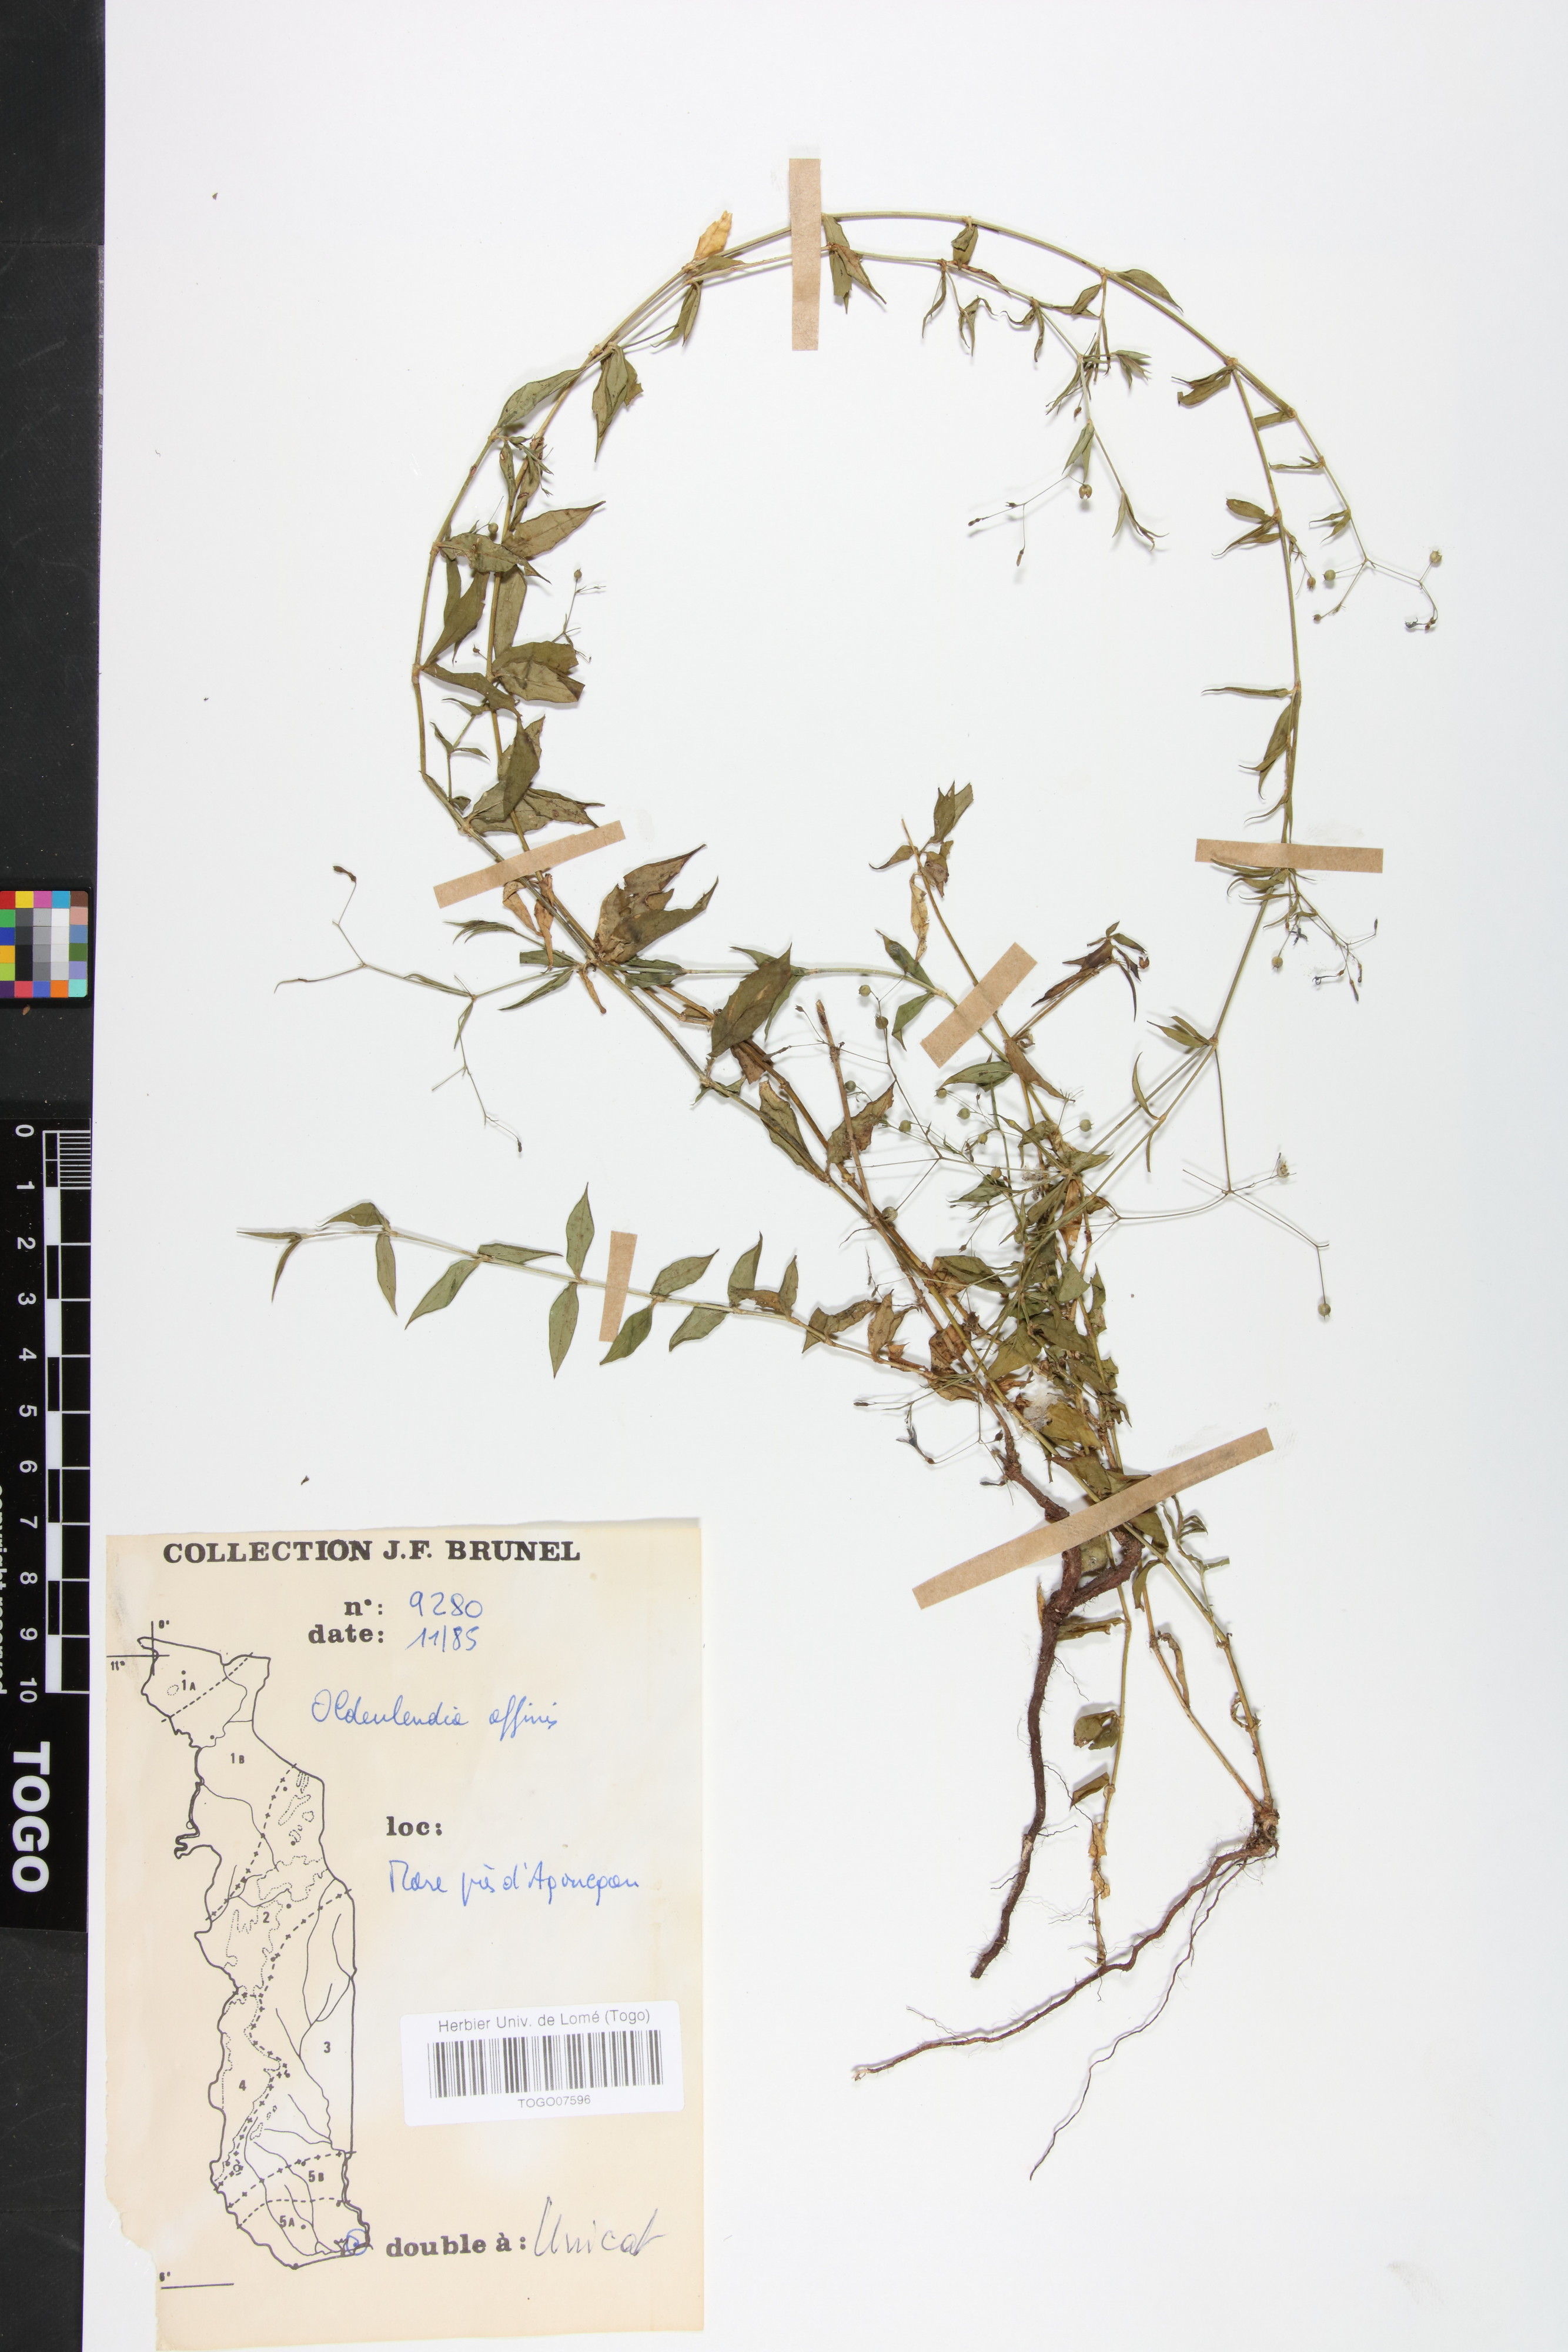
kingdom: Plantae
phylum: Tracheophyta
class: Magnoliopsida
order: Gentianales
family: Rubiaceae
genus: Oldenlandia
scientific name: Oldenlandia affinis
